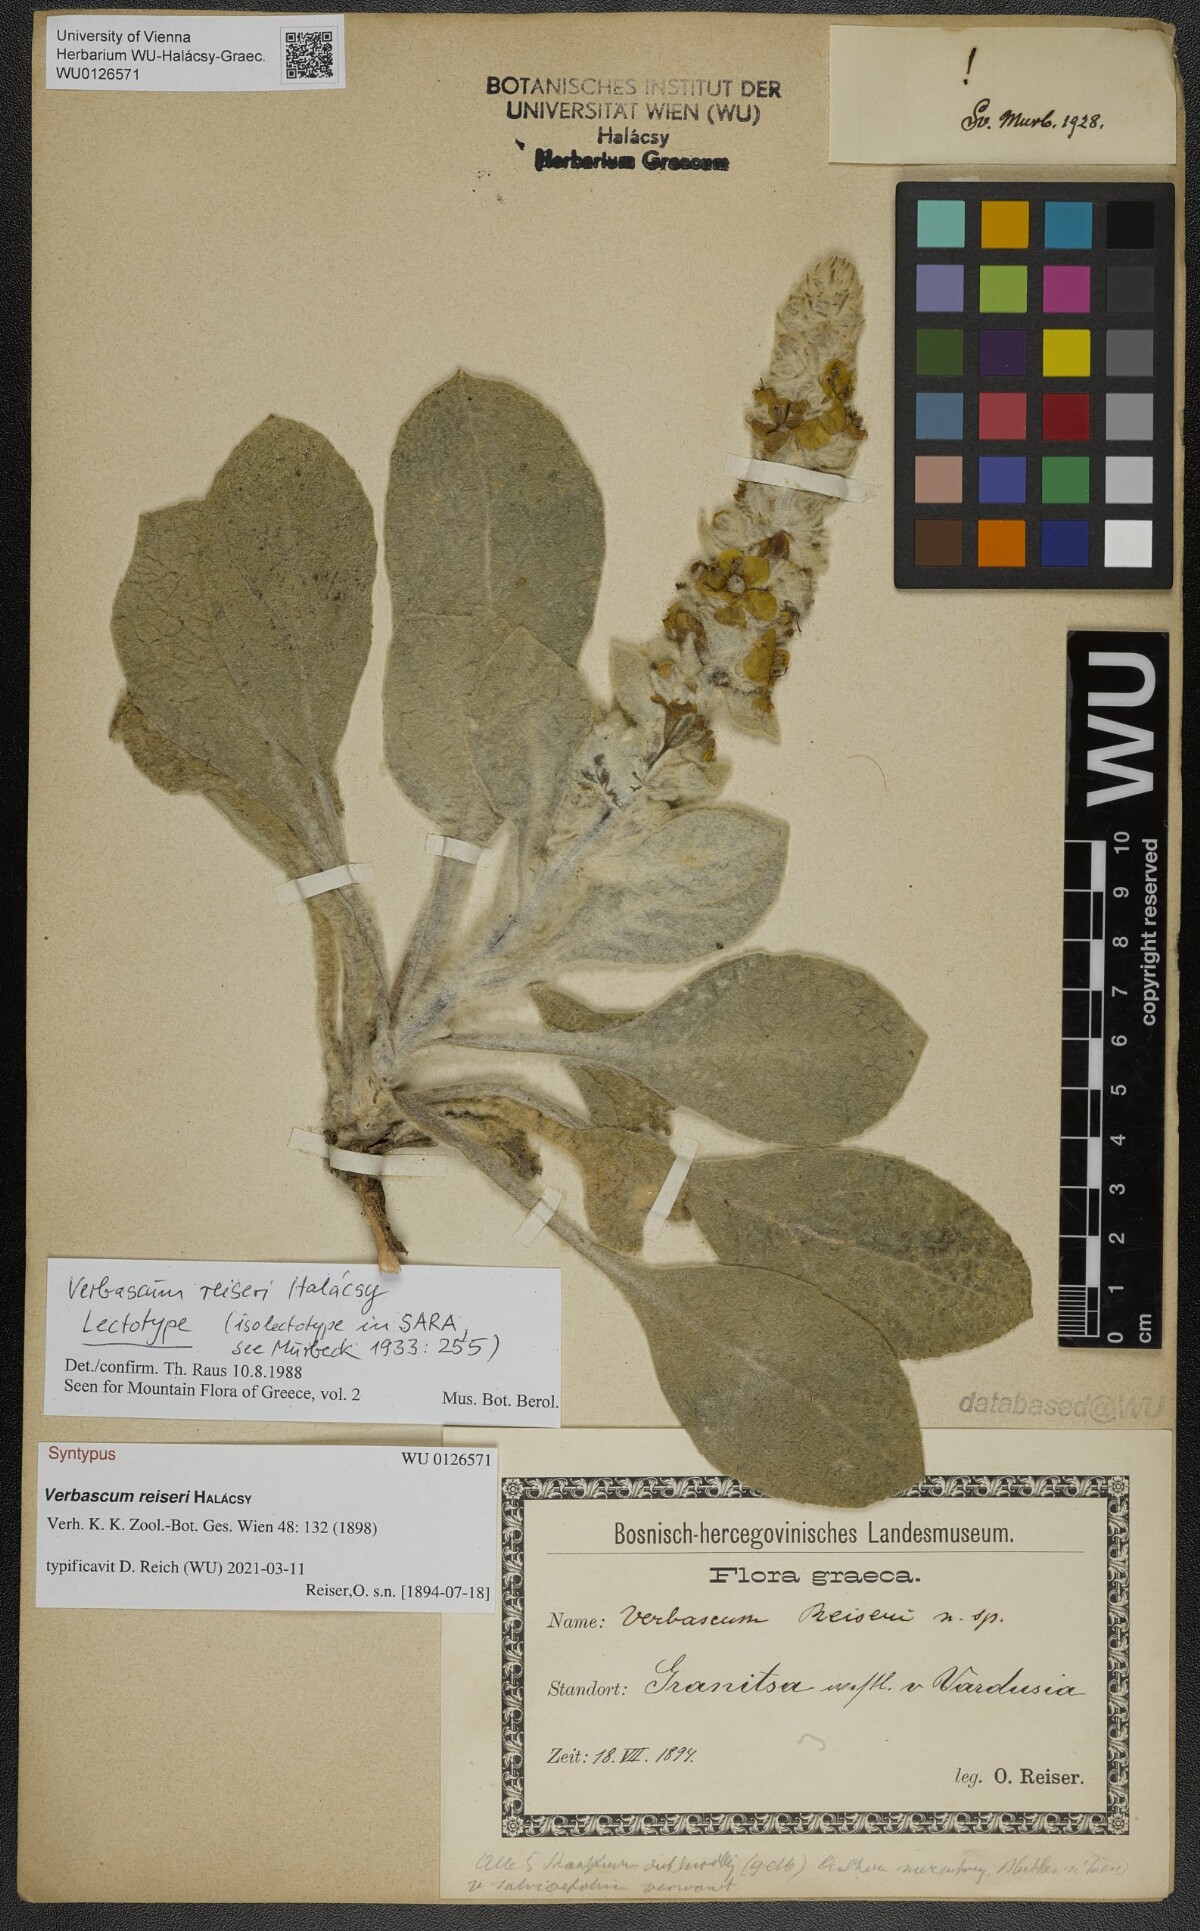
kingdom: Plantae
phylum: Tracheophyta
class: Magnoliopsida
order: Lamiales
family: Scrophulariaceae
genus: Verbascum
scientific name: Verbascum reiseri
